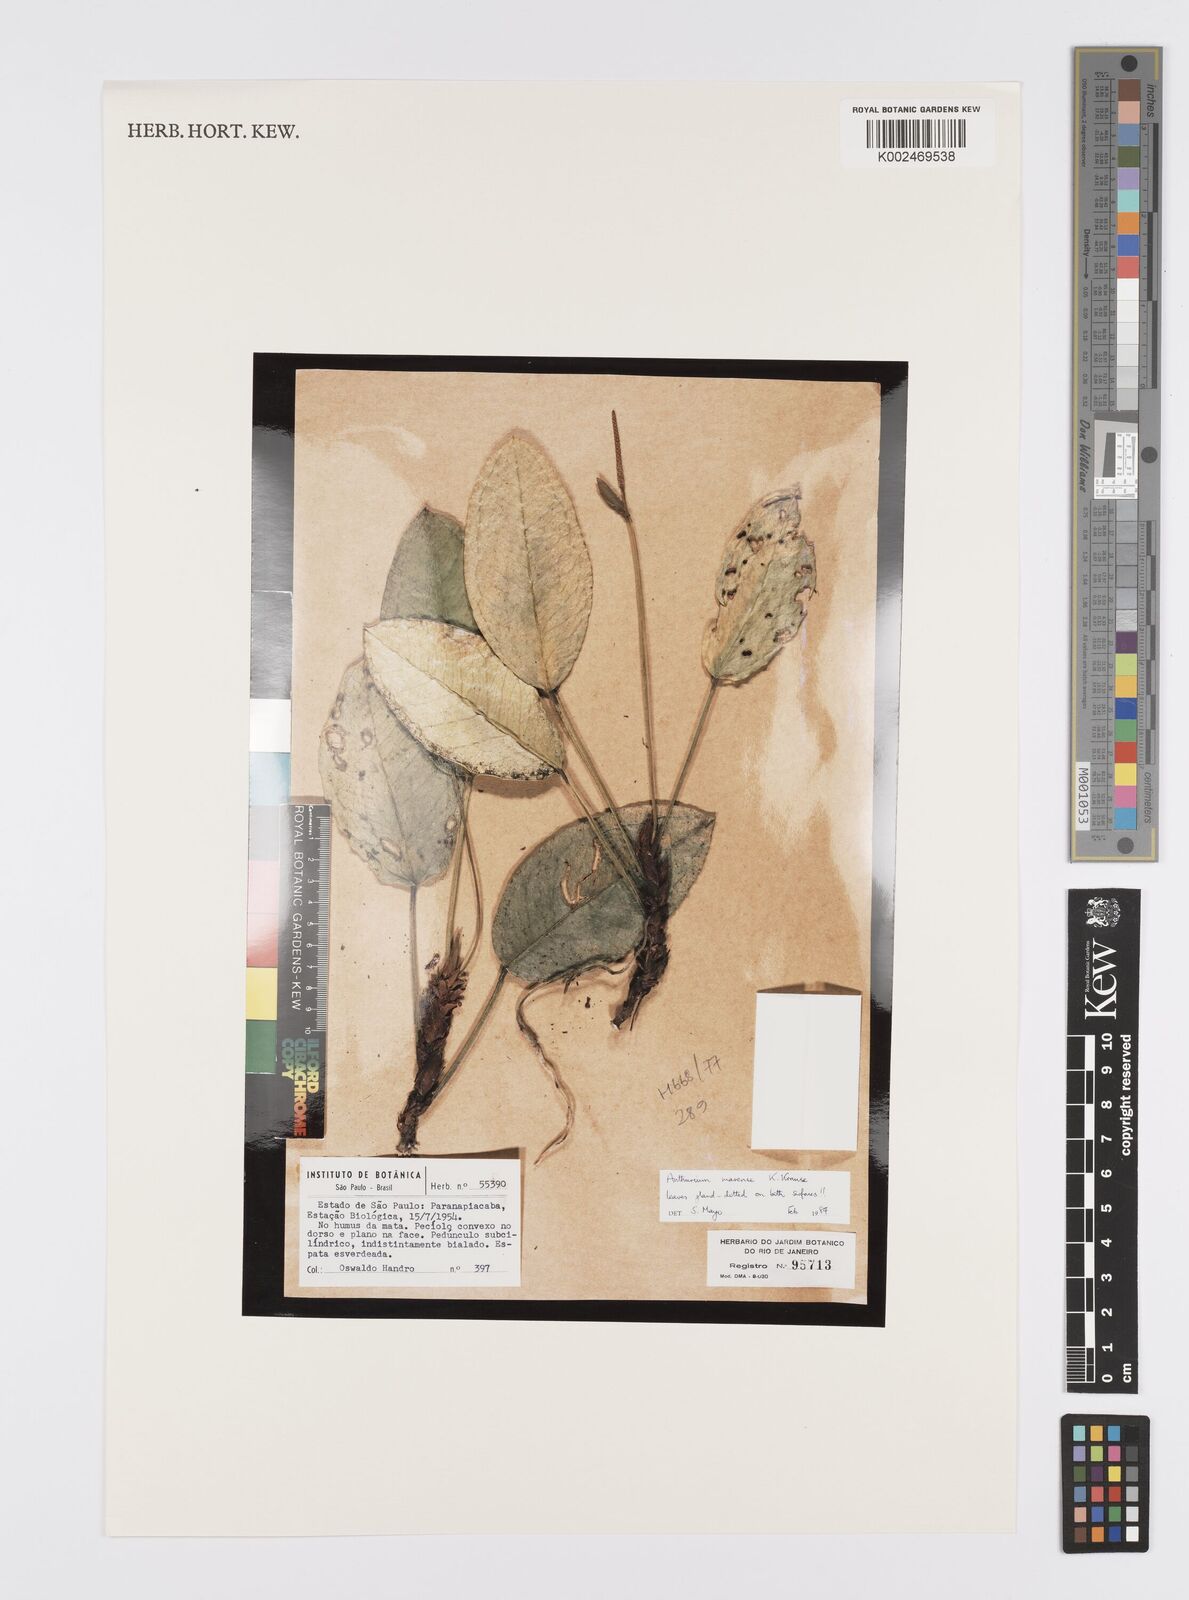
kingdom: Plantae
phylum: Tracheophyta
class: Liliopsida
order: Alismatales
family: Araceae
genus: Anthurium
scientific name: Anthurium marense
